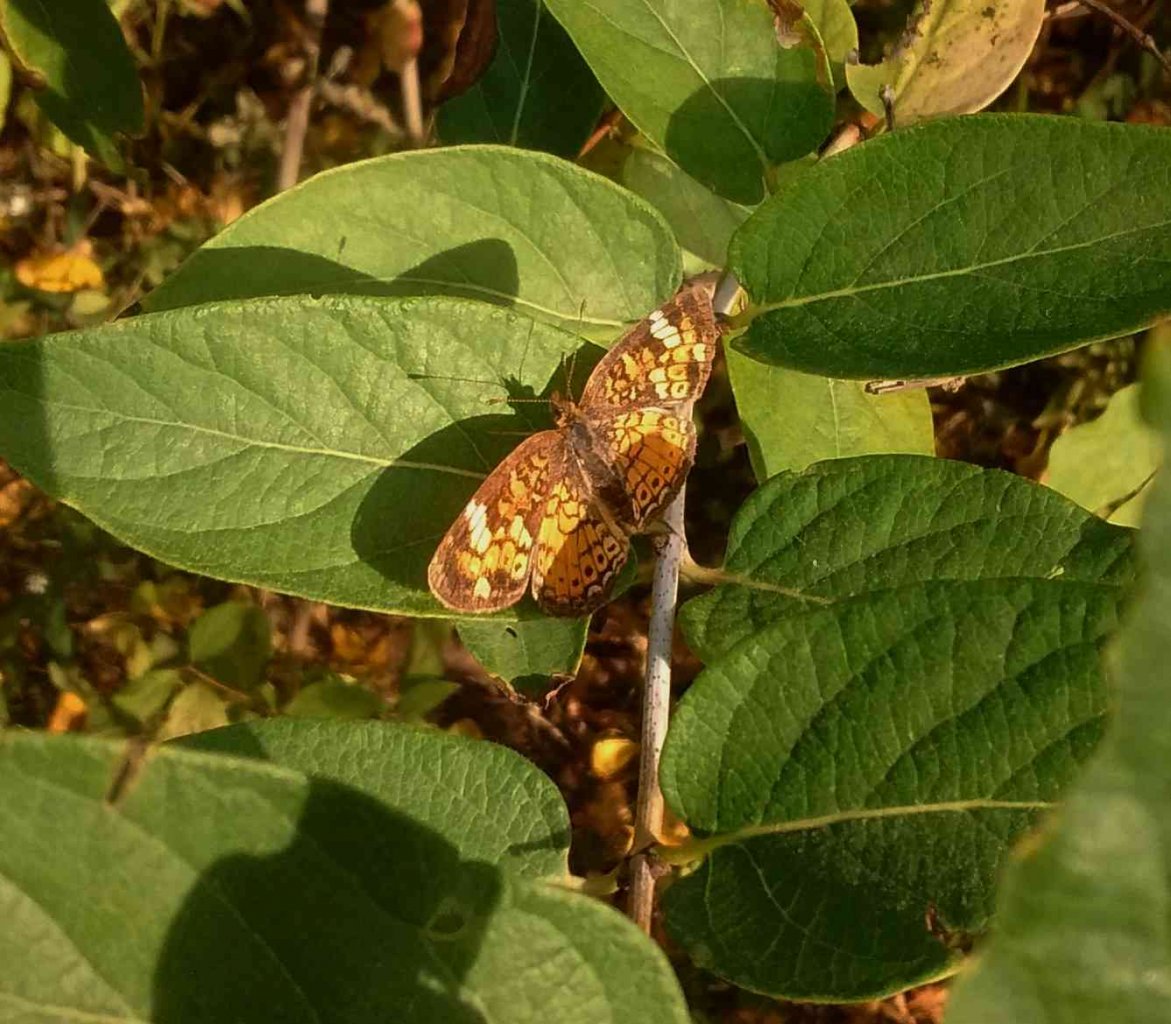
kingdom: Animalia
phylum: Arthropoda
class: Insecta
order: Lepidoptera
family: Nymphalidae
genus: Phyciodes
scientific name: Phyciodes tharos
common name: Northern Crescent
